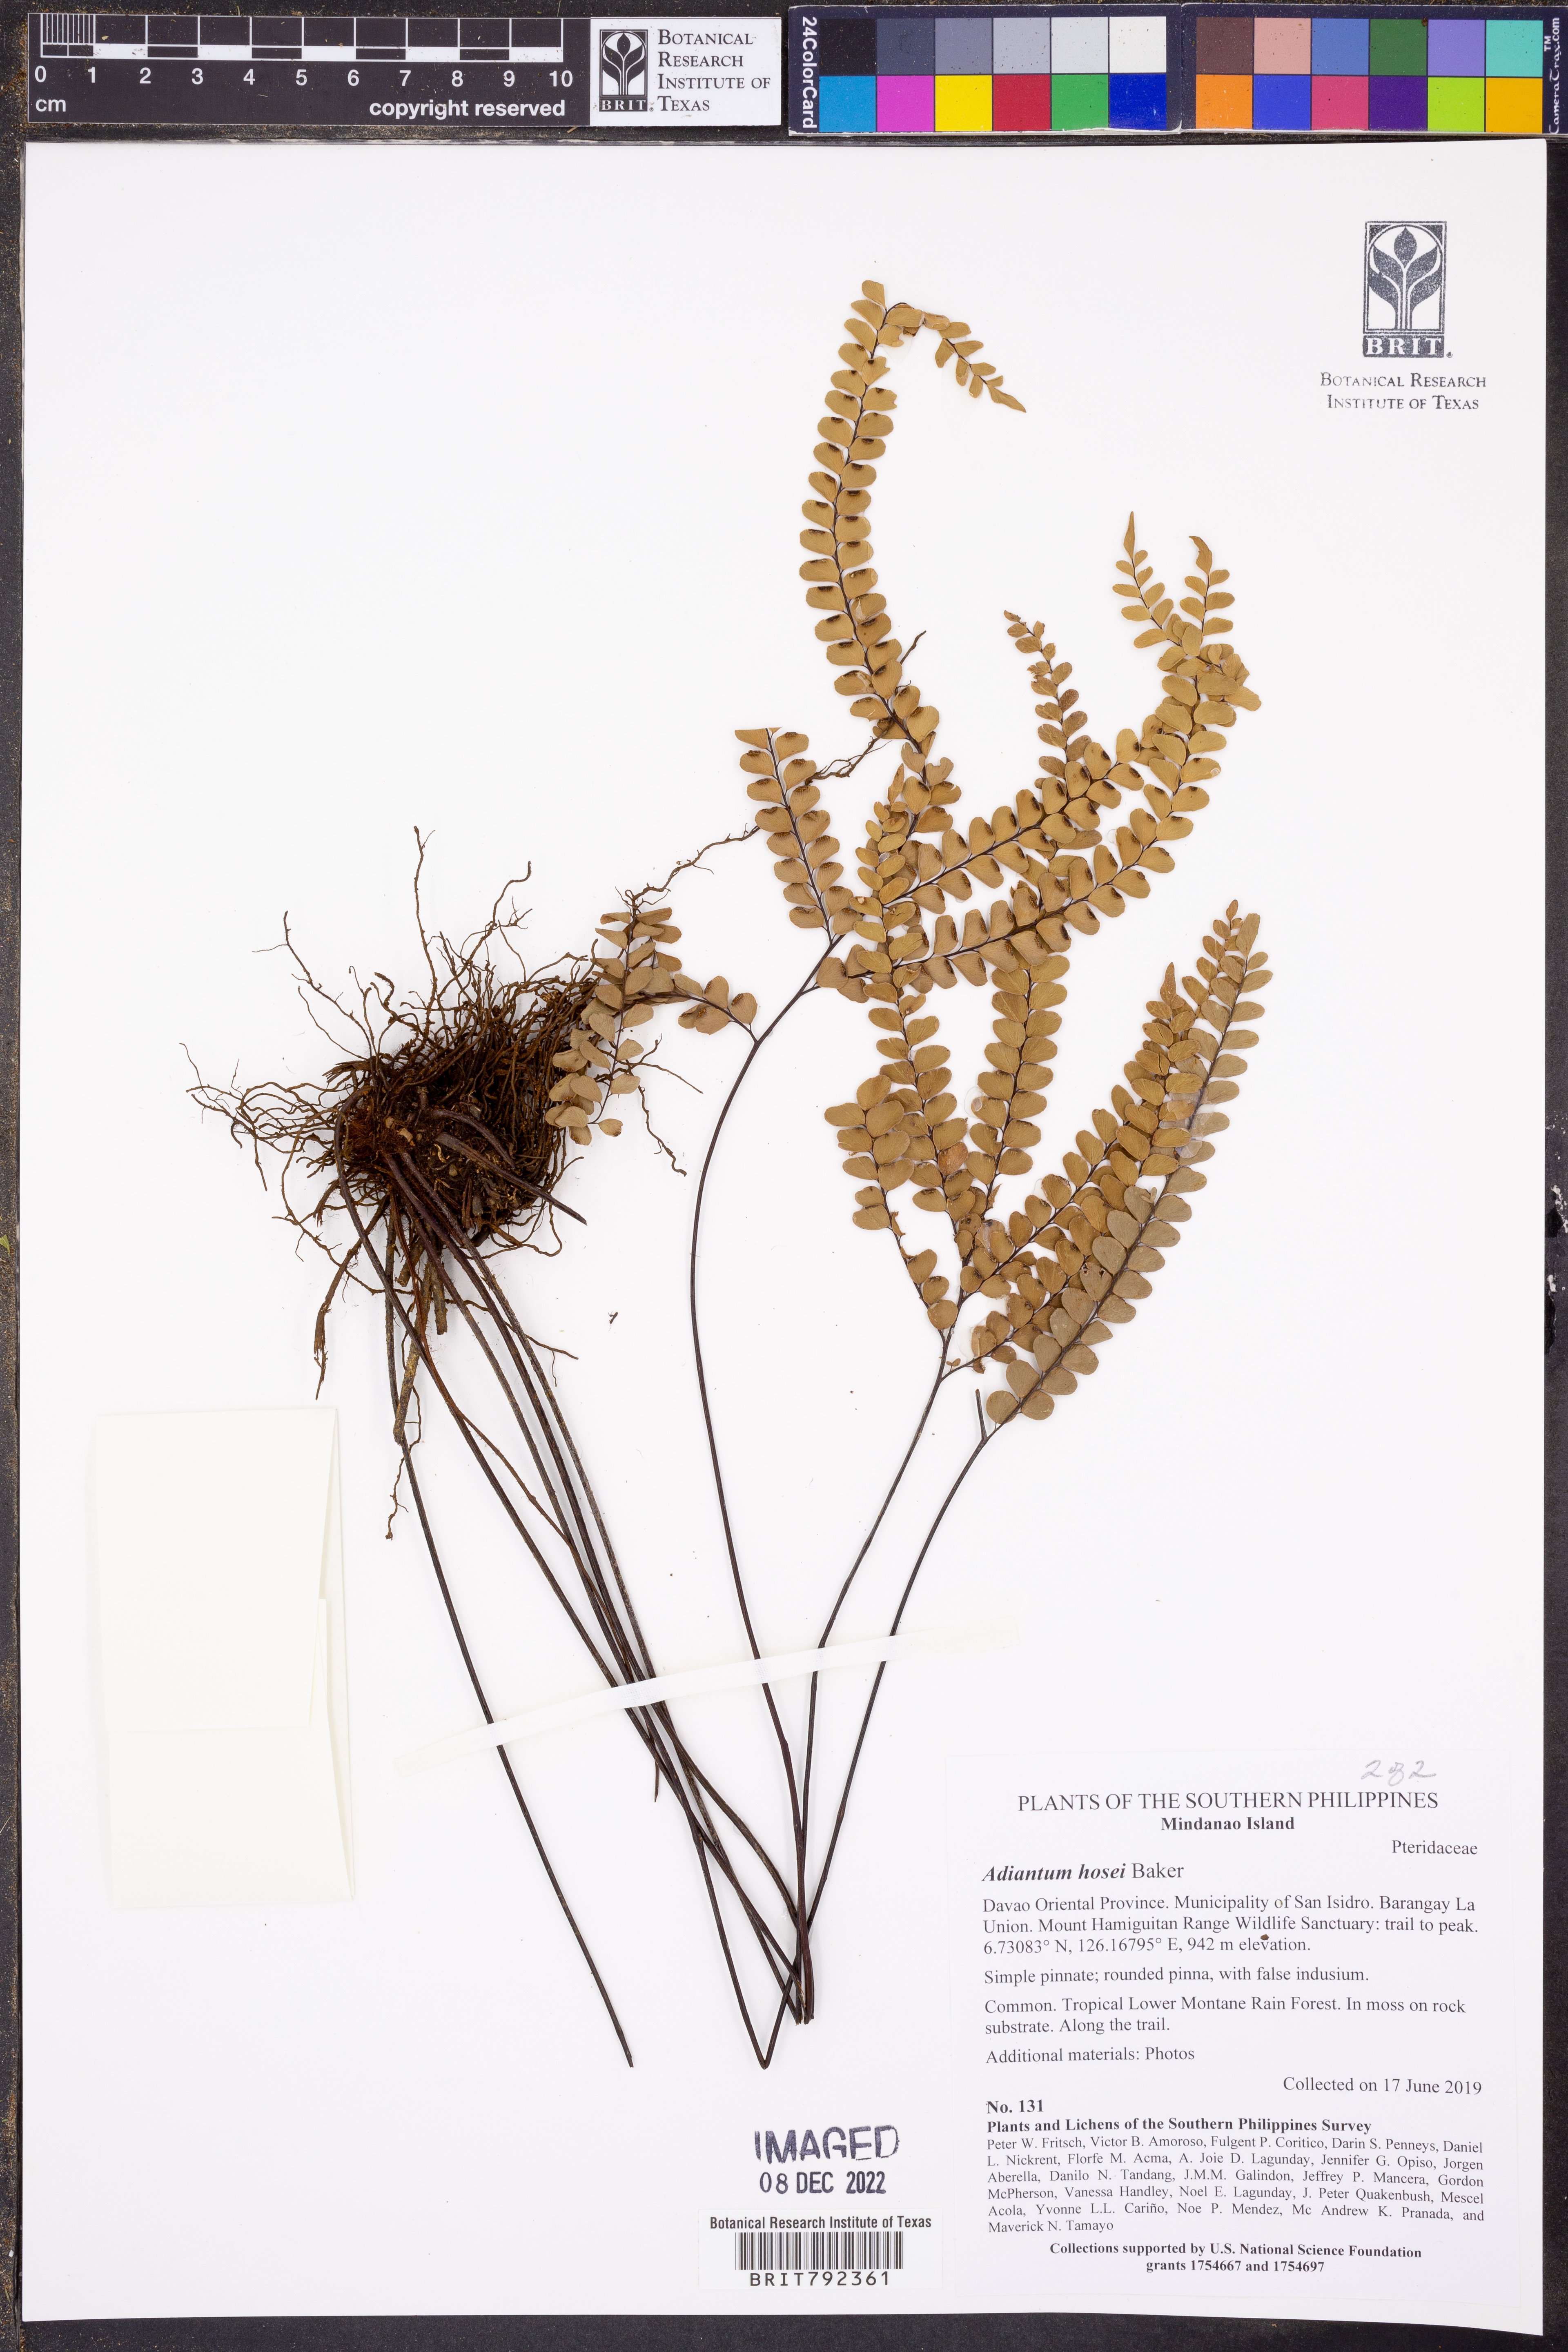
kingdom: Plantae
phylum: Tracheophyta
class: Polypodiopsida
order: Polypodiales
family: Pteridaceae
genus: Adiantum
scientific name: Adiantum hosei
